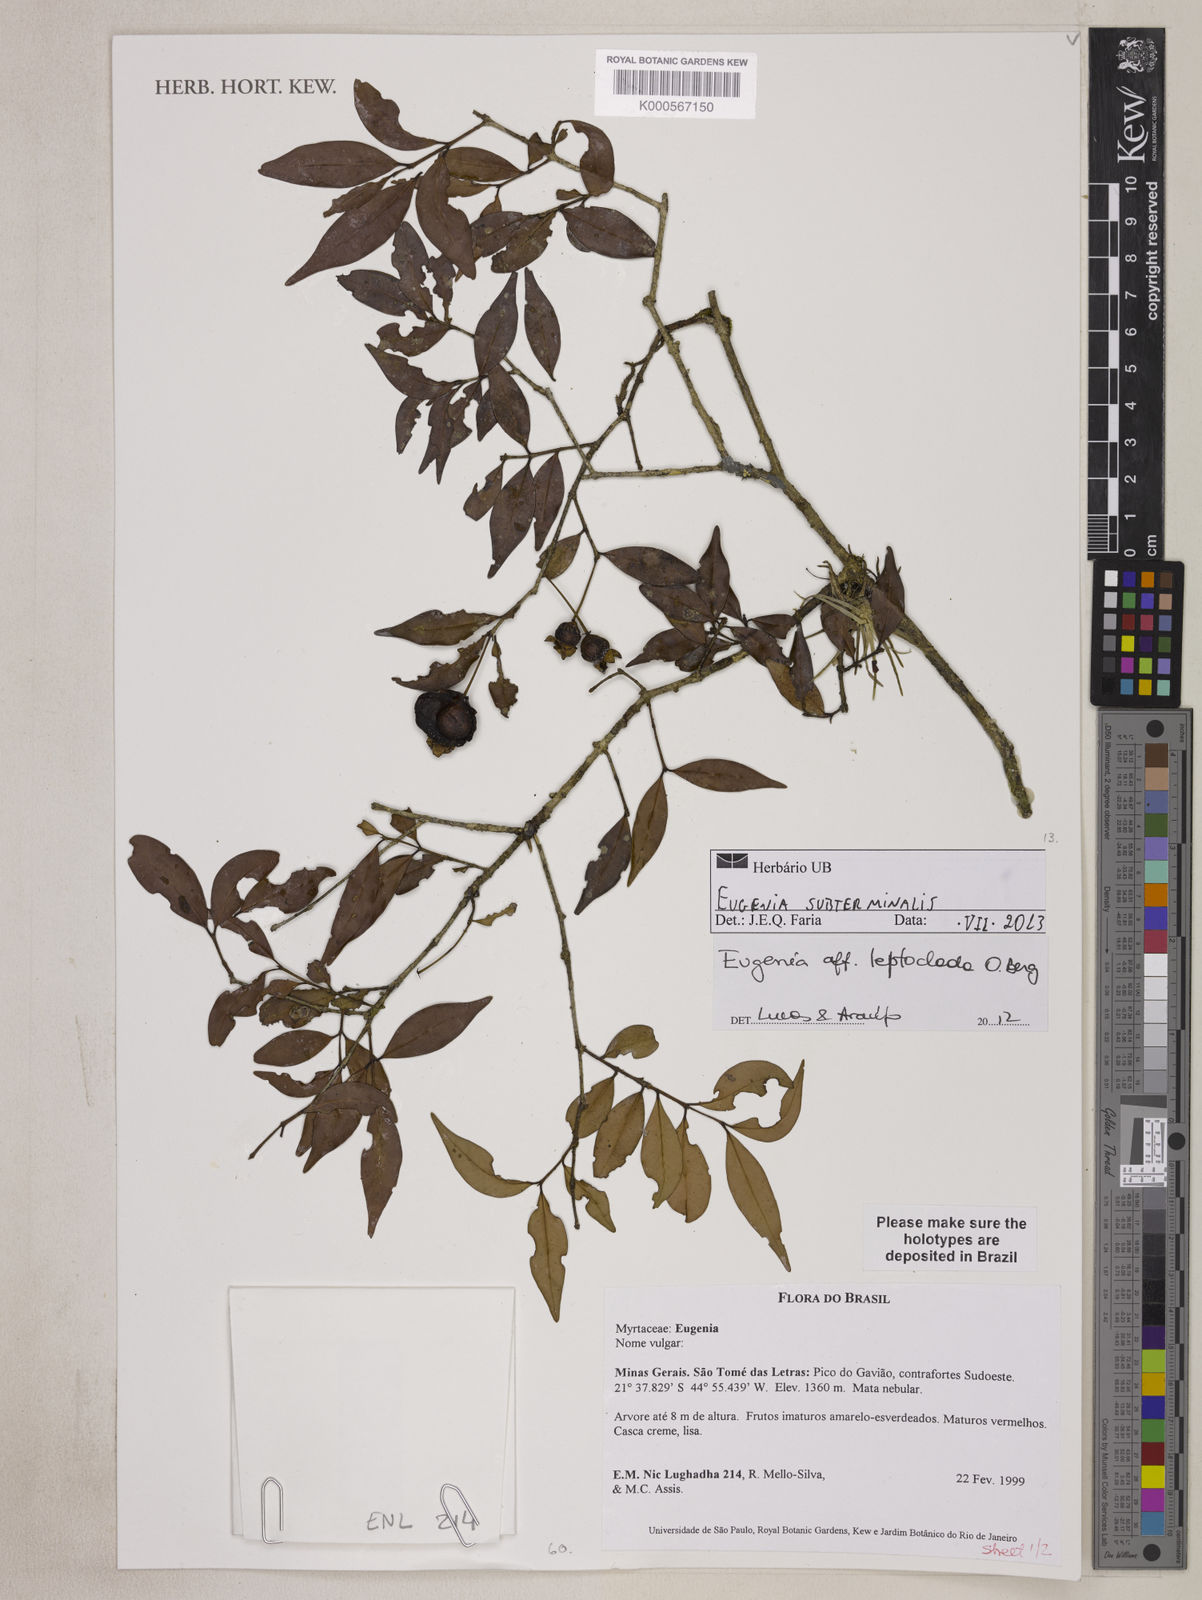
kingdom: Plantae
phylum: Tracheophyta
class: Magnoliopsida
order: Myrtales
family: Myrtaceae
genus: Eugenia
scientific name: Eugenia subterminalis
